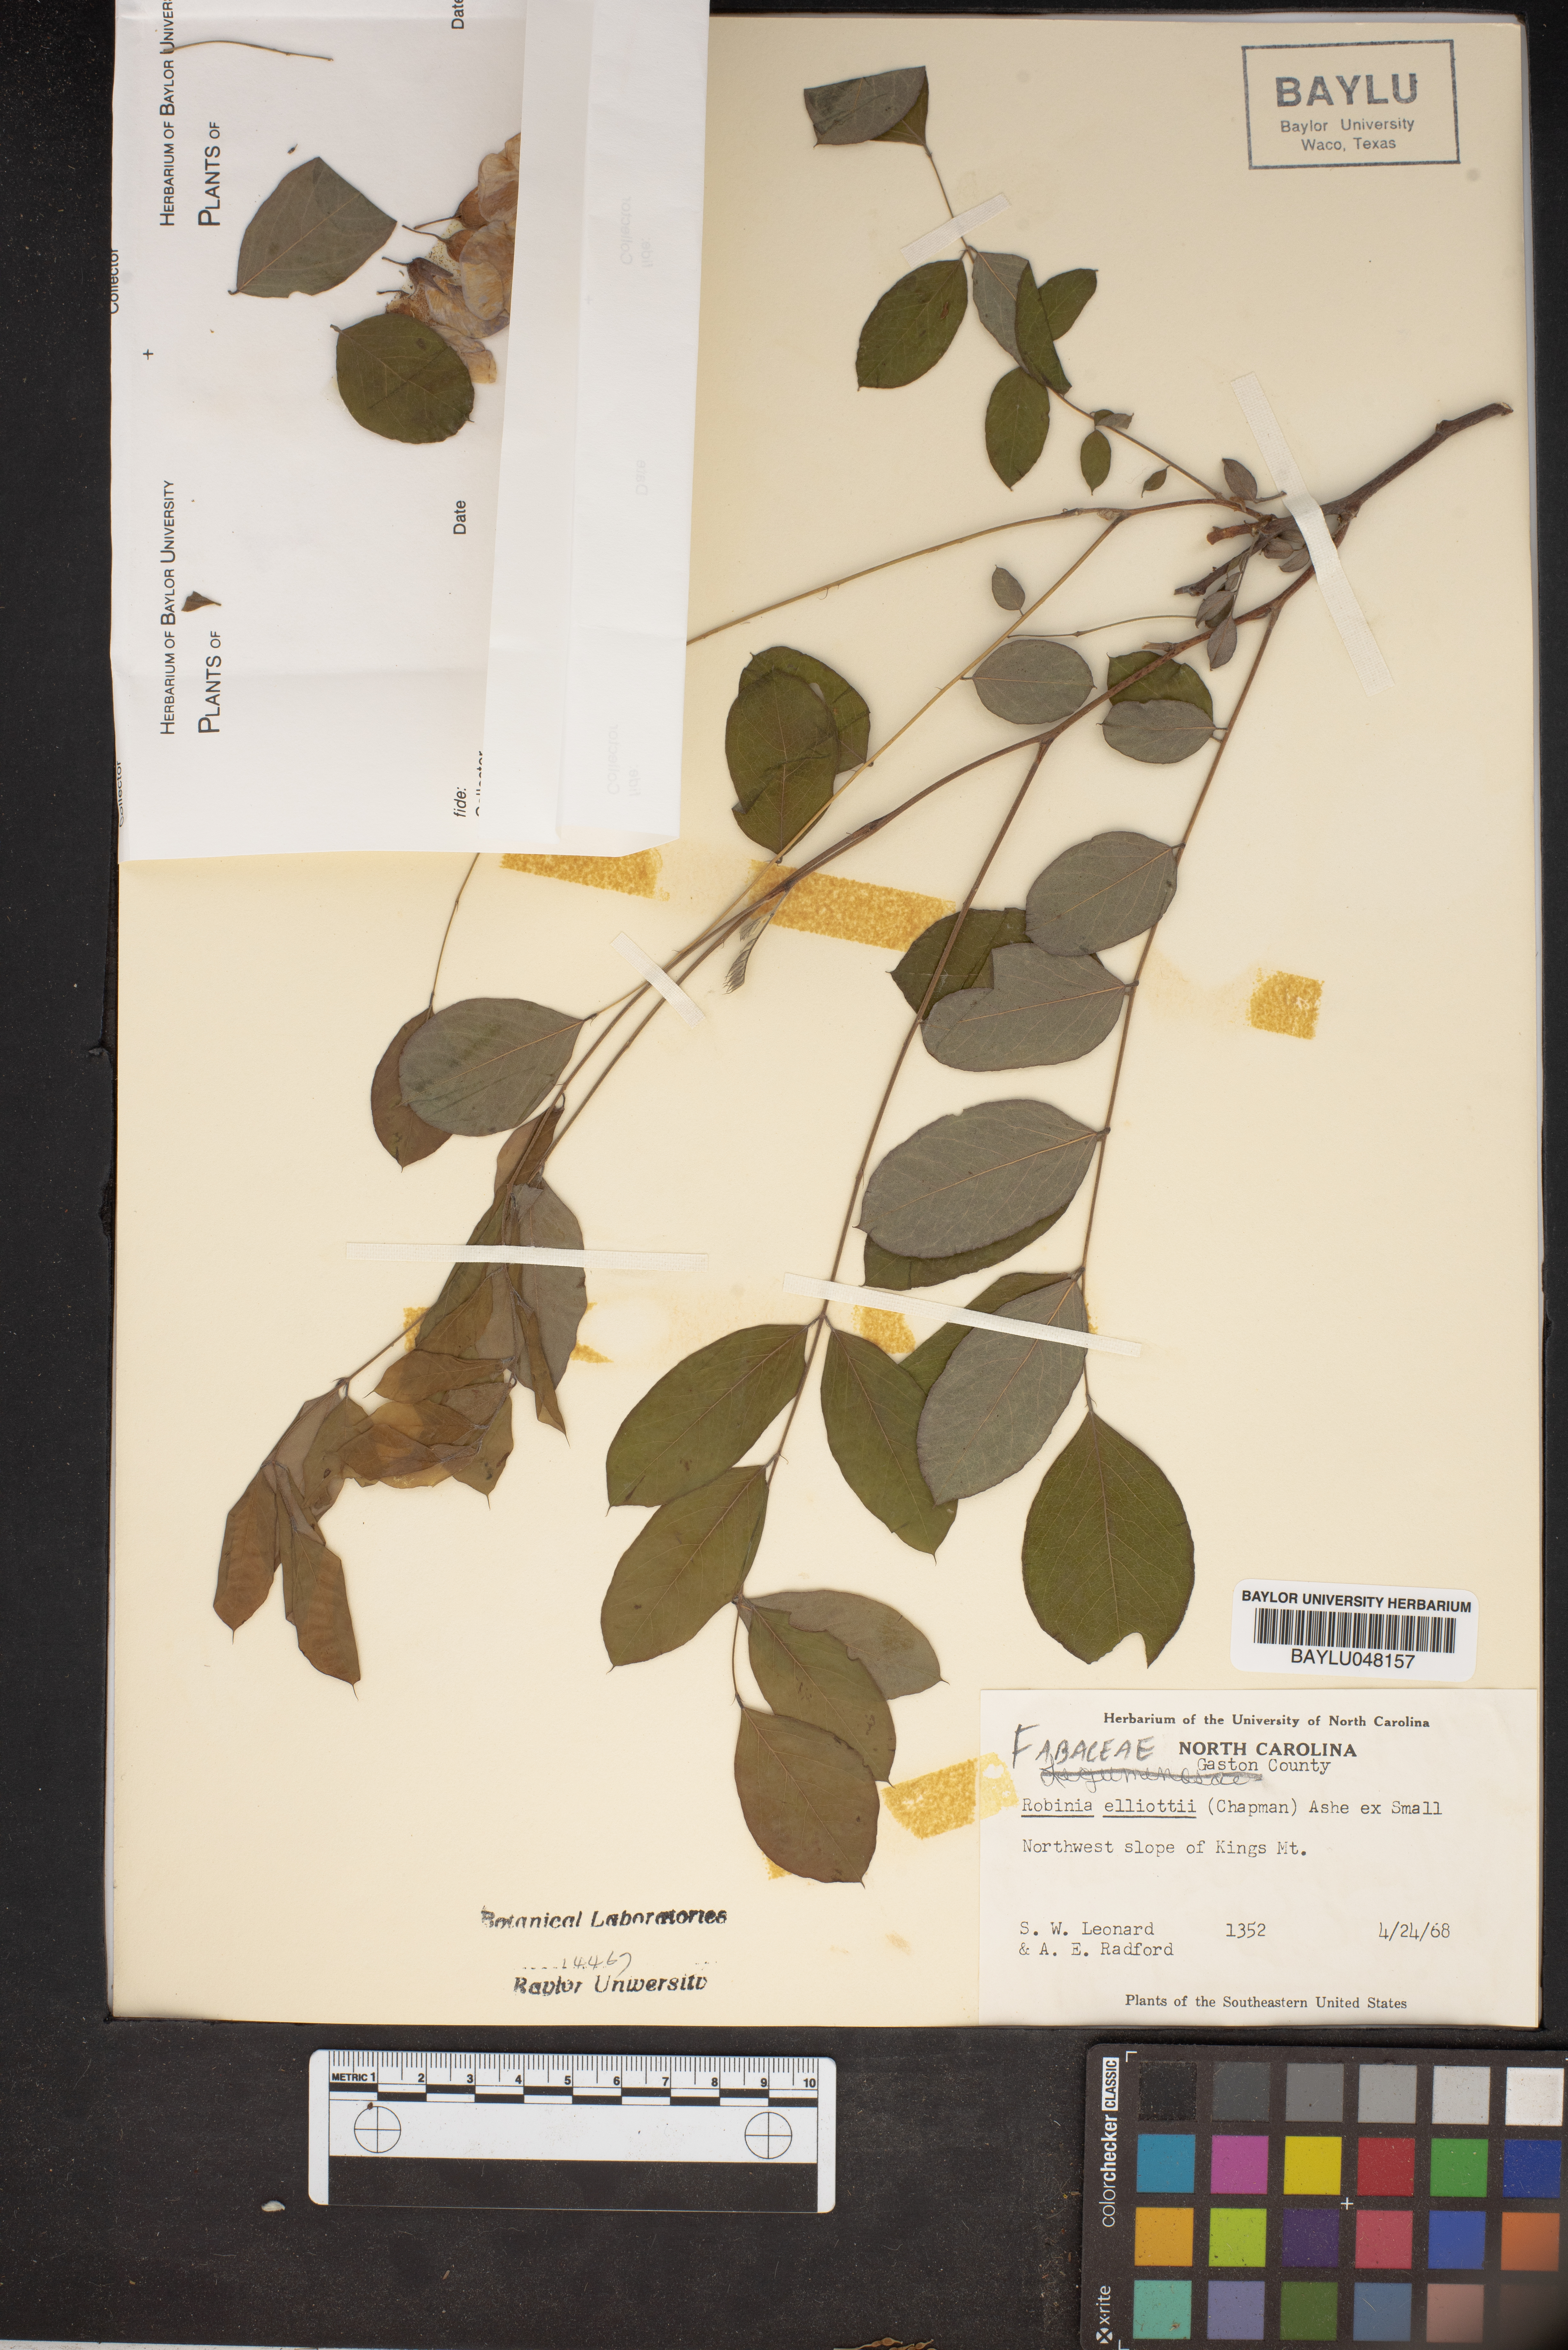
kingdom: Plantae
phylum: Tracheophyta
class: Magnoliopsida
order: Fabales
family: Fabaceae
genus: Robinia
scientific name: Robinia hispida
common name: Bristly locust
